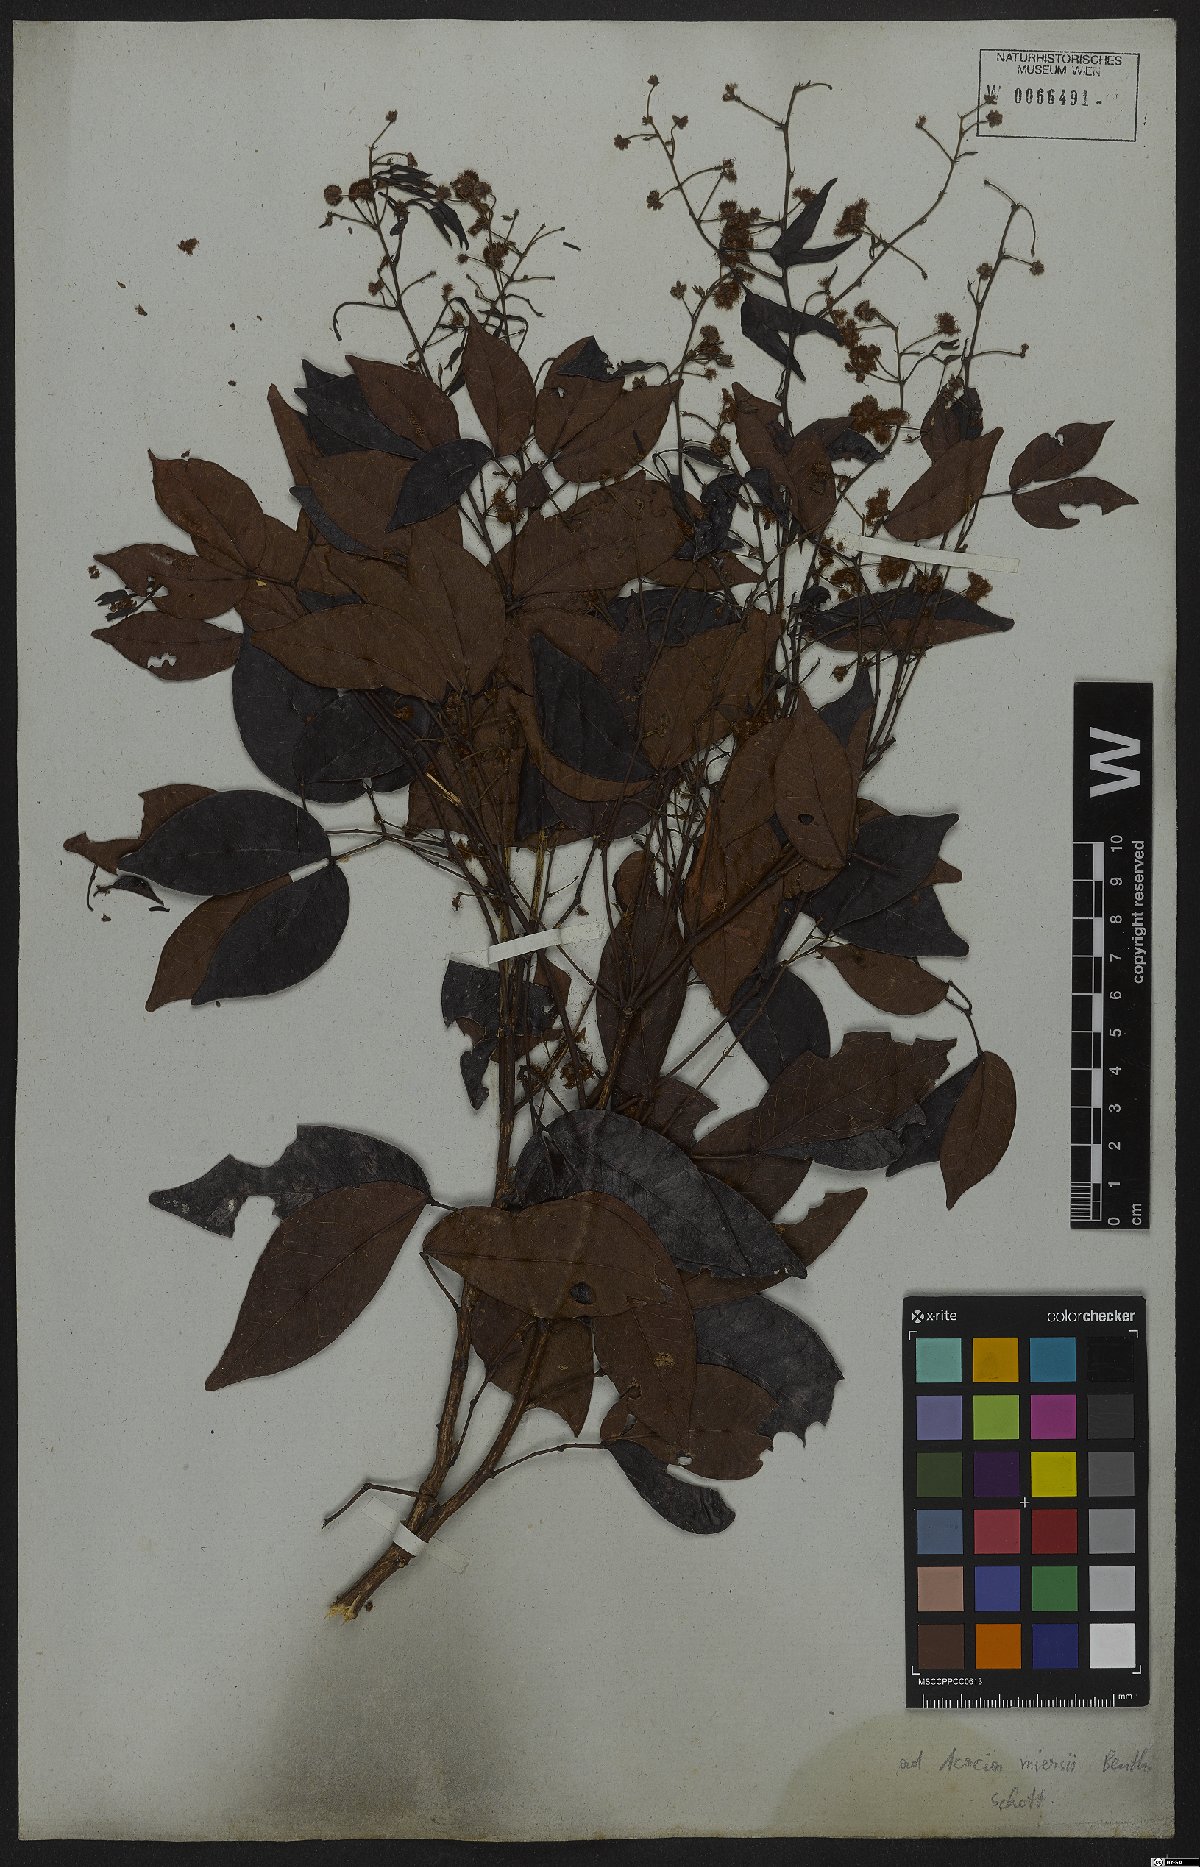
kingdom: Plantae
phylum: Tracheophyta
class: Magnoliopsida
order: Fabales
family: Fabaceae
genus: Parasenegalia
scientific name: Parasenegalia miersii
